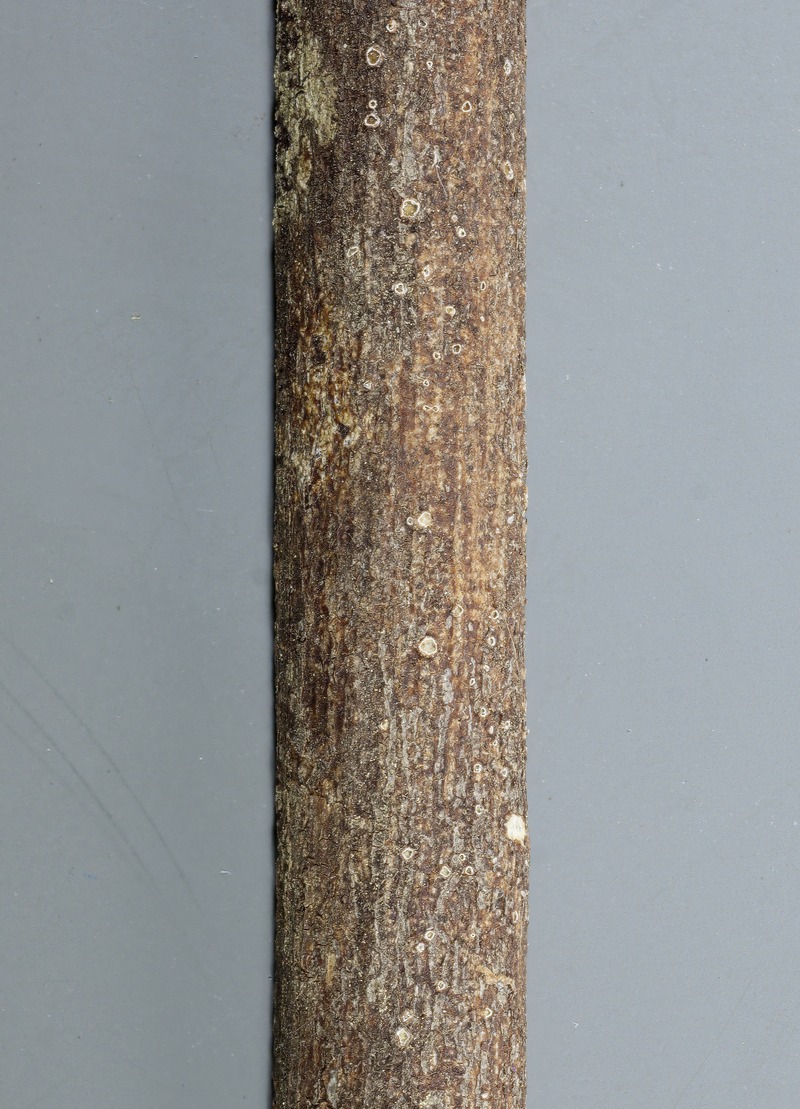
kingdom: Fungi
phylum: Ascomycota
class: Lecanoromycetes
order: Ostropales
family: Stictidaceae
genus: Stictis
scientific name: Stictis
